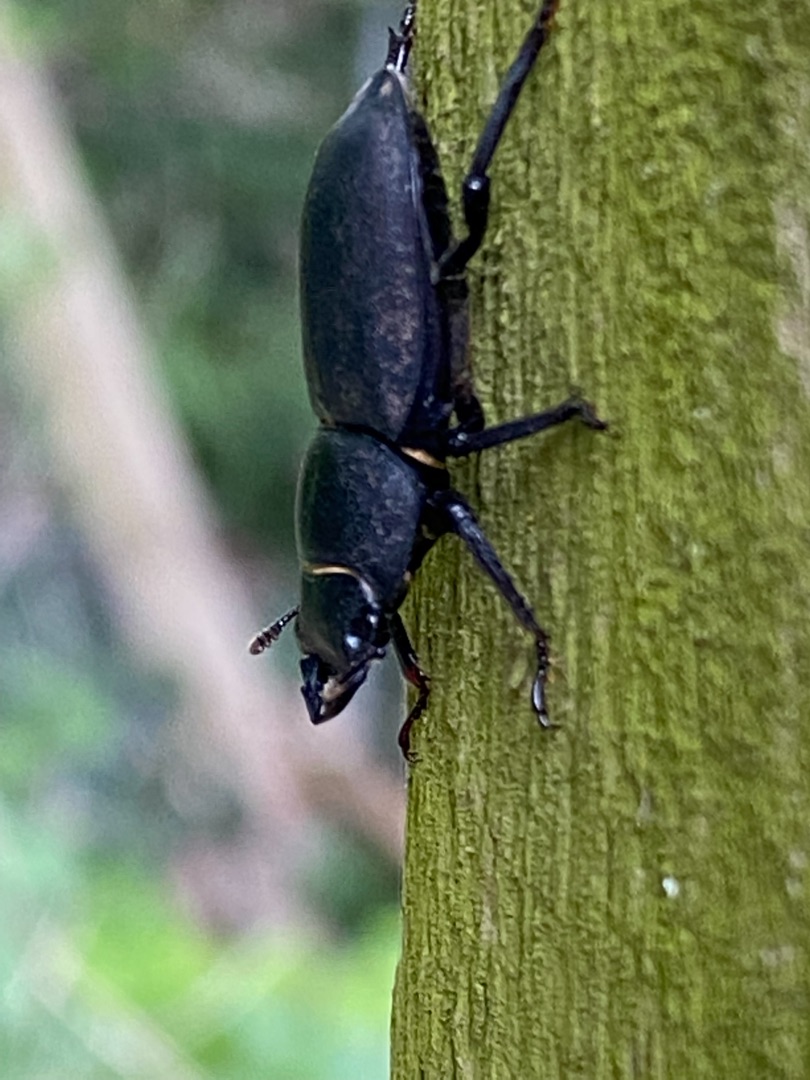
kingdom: Animalia
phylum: Arthropoda
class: Insecta
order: Coleoptera
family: Lucanidae
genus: Dorcus
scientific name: Dorcus parallelipipedus
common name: Bøghjort
